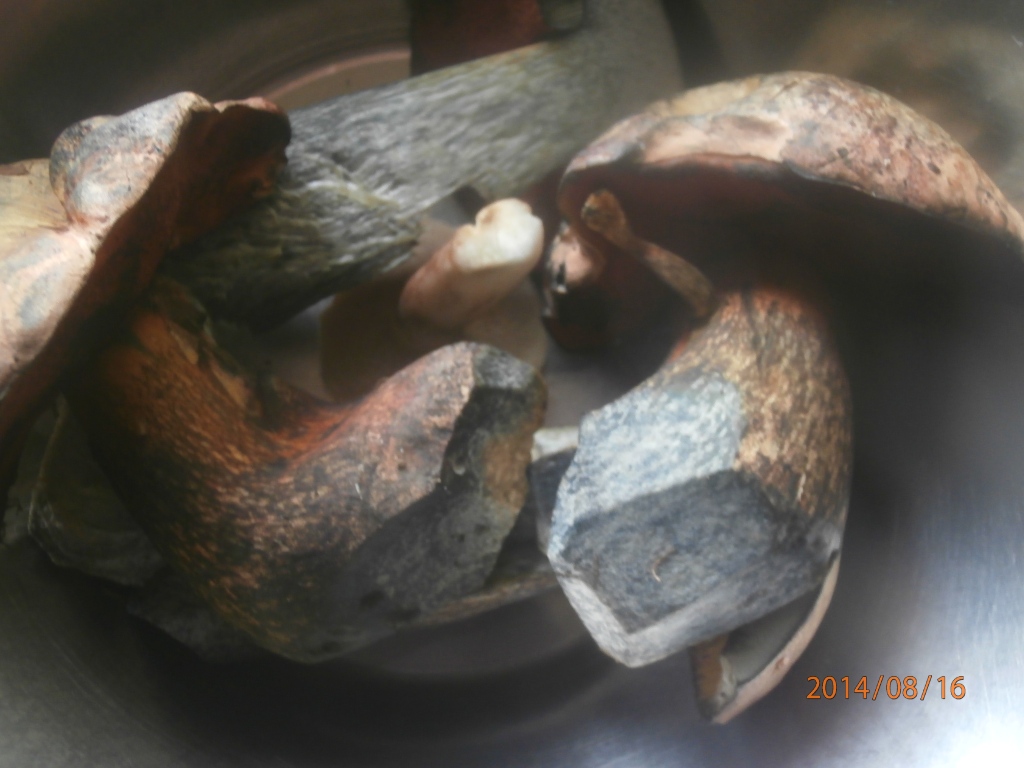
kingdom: Fungi
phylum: Basidiomycota
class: Agaricomycetes
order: Boletales
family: Boletaceae
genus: Suillellus
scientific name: Suillellus luridus
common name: netstokket indigorørhat
